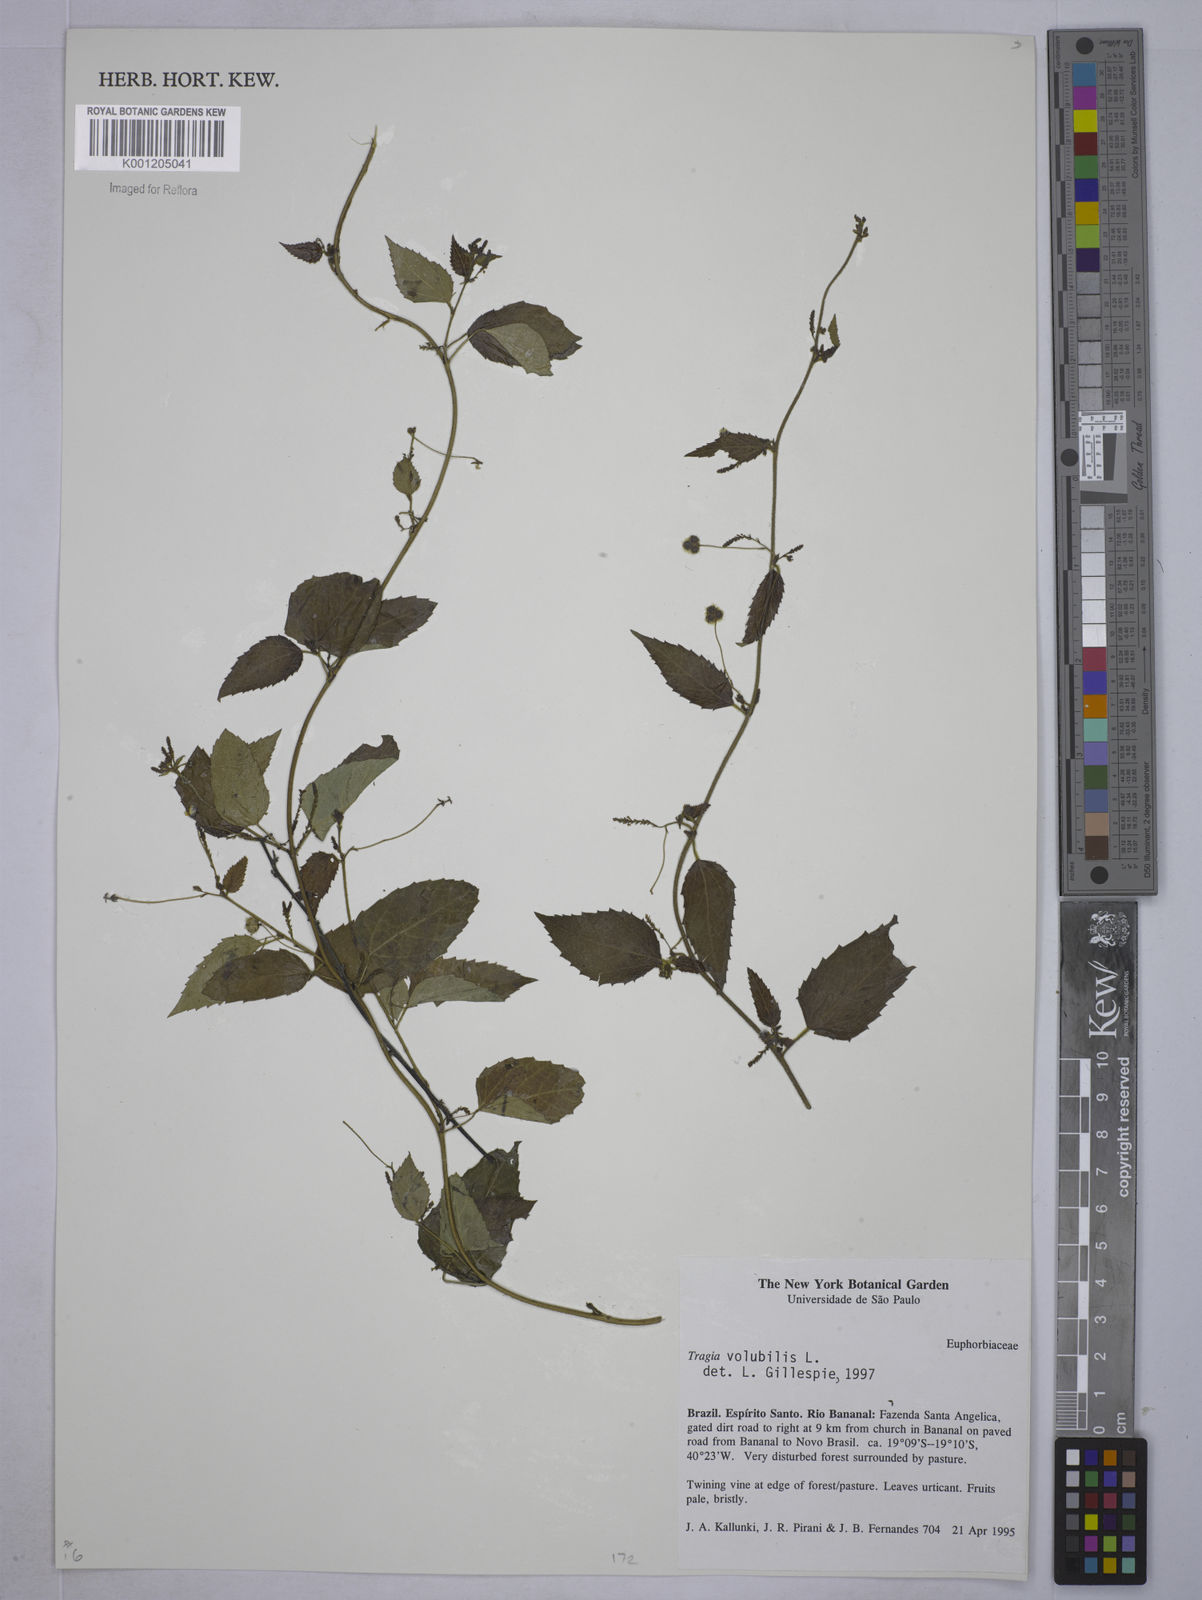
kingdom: Plantae
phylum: Tracheophyta
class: Magnoliopsida
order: Malpighiales
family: Euphorbiaceae
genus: Tragia
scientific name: Tragia volubilis
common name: Twining cow-itch
